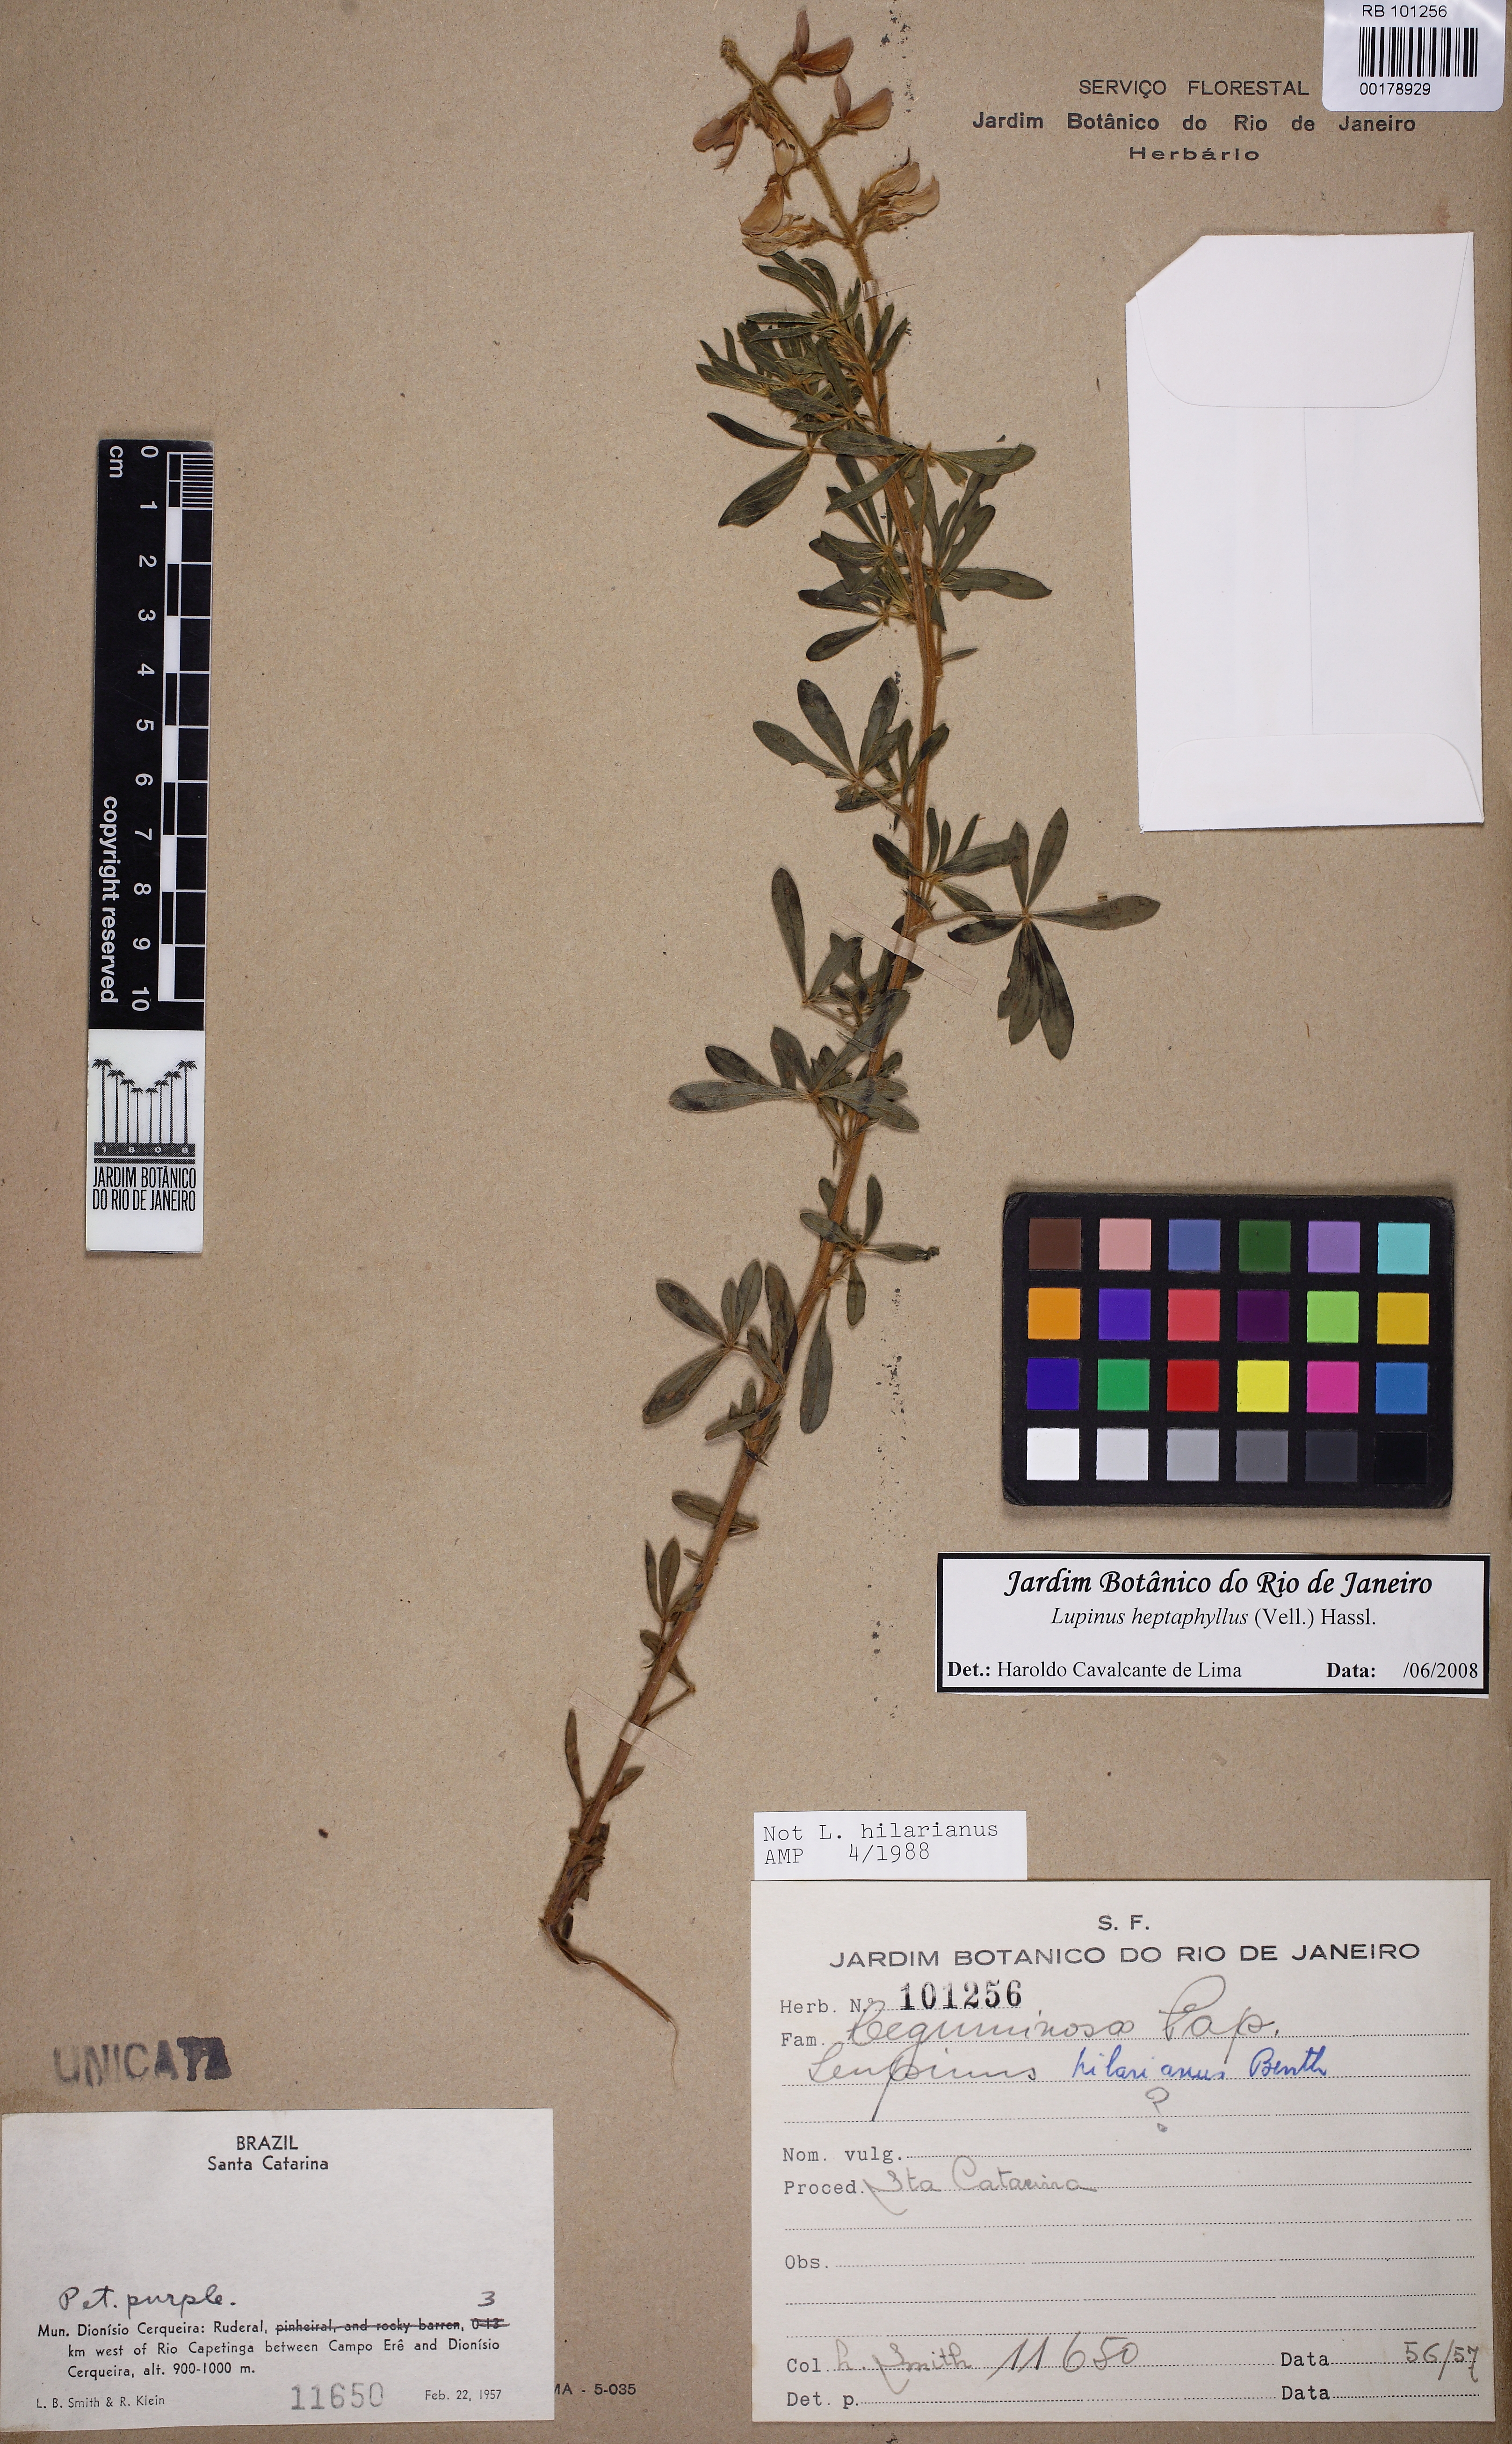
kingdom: Plantae
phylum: Tracheophyta
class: Magnoliopsida
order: Fabales
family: Fabaceae
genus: Lupinus
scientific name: Lupinus heptaphyllus
